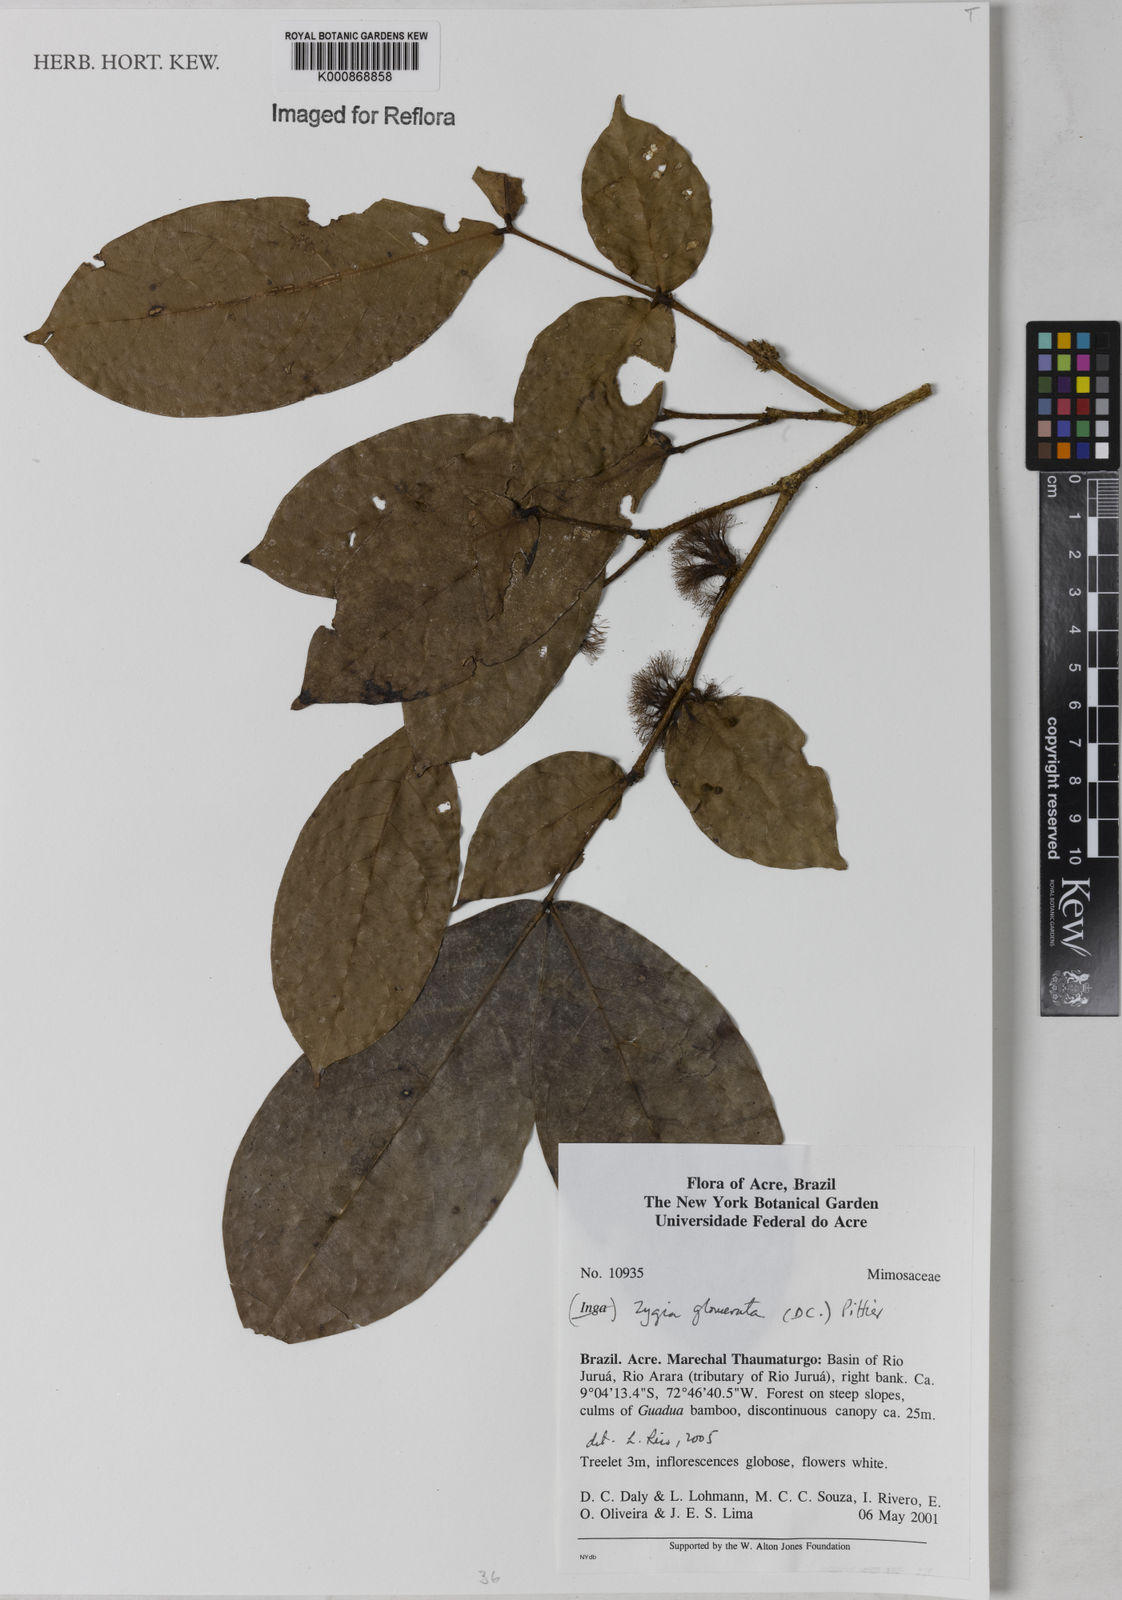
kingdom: Plantae
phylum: Tracheophyta
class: Magnoliopsida
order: Fabales
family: Fabaceae
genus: Zygia
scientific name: Zygia cataractae
